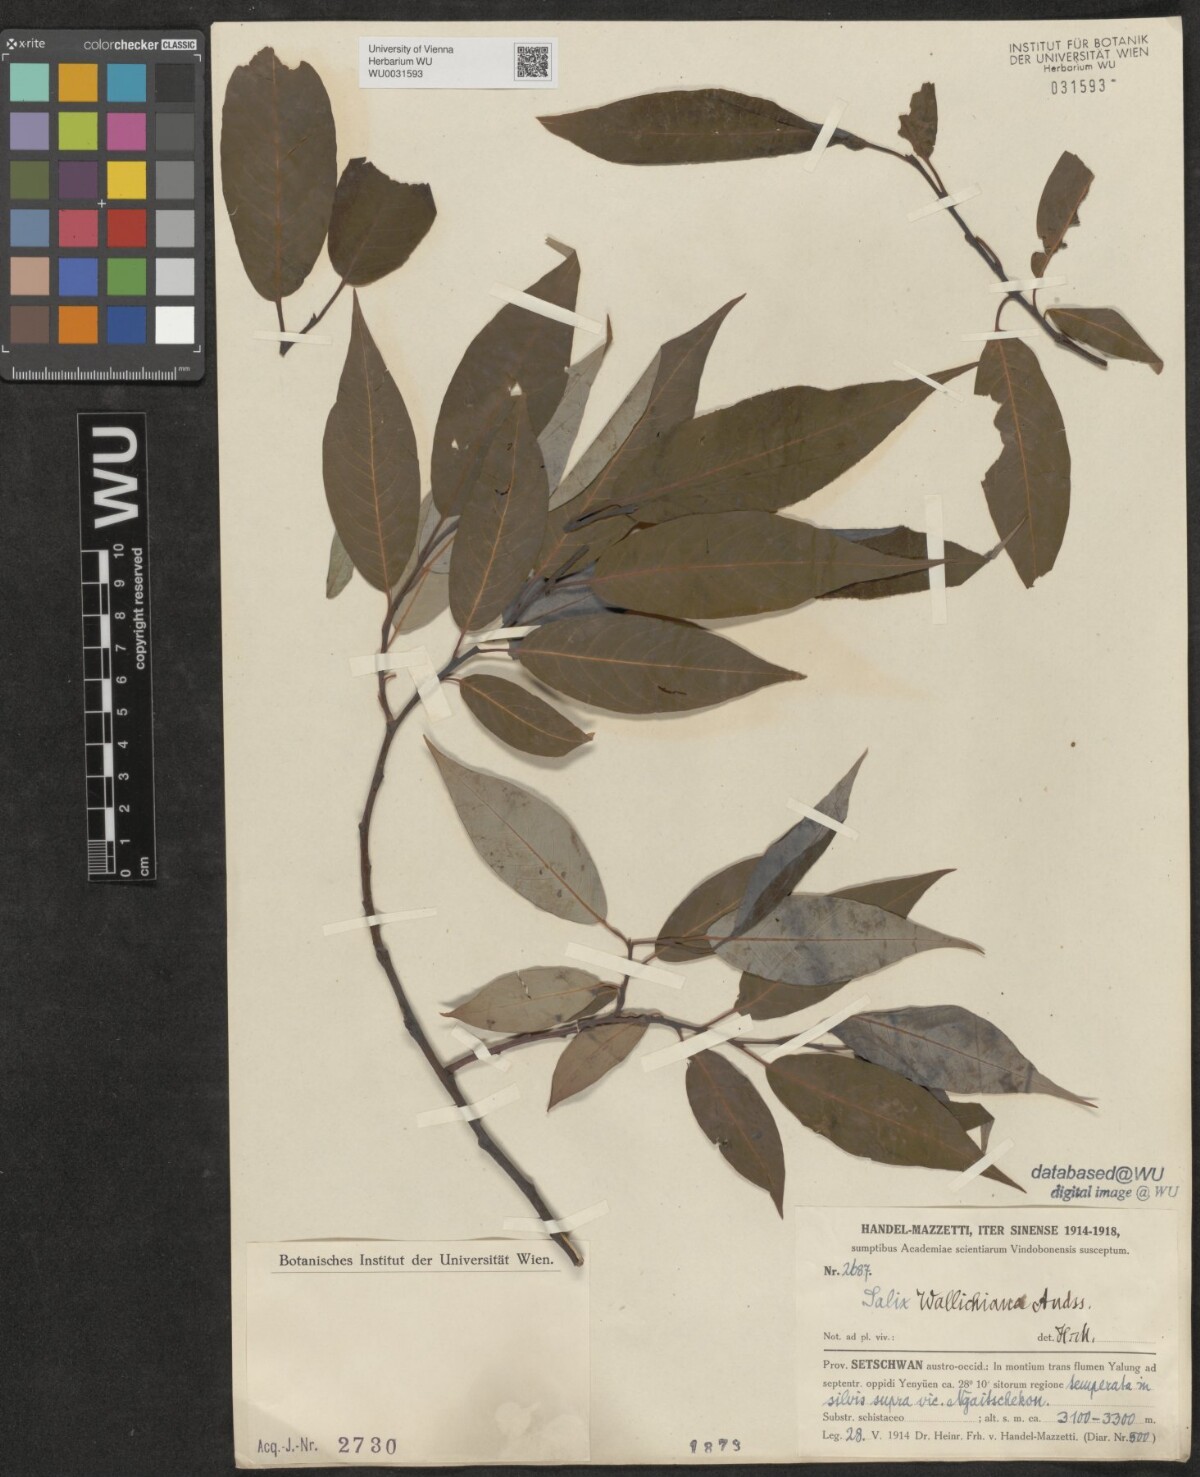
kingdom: Plantae
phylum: Tracheophyta
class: Magnoliopsida
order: Malpighiales
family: Salicaceae
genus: Salix
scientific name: Salix disperma
